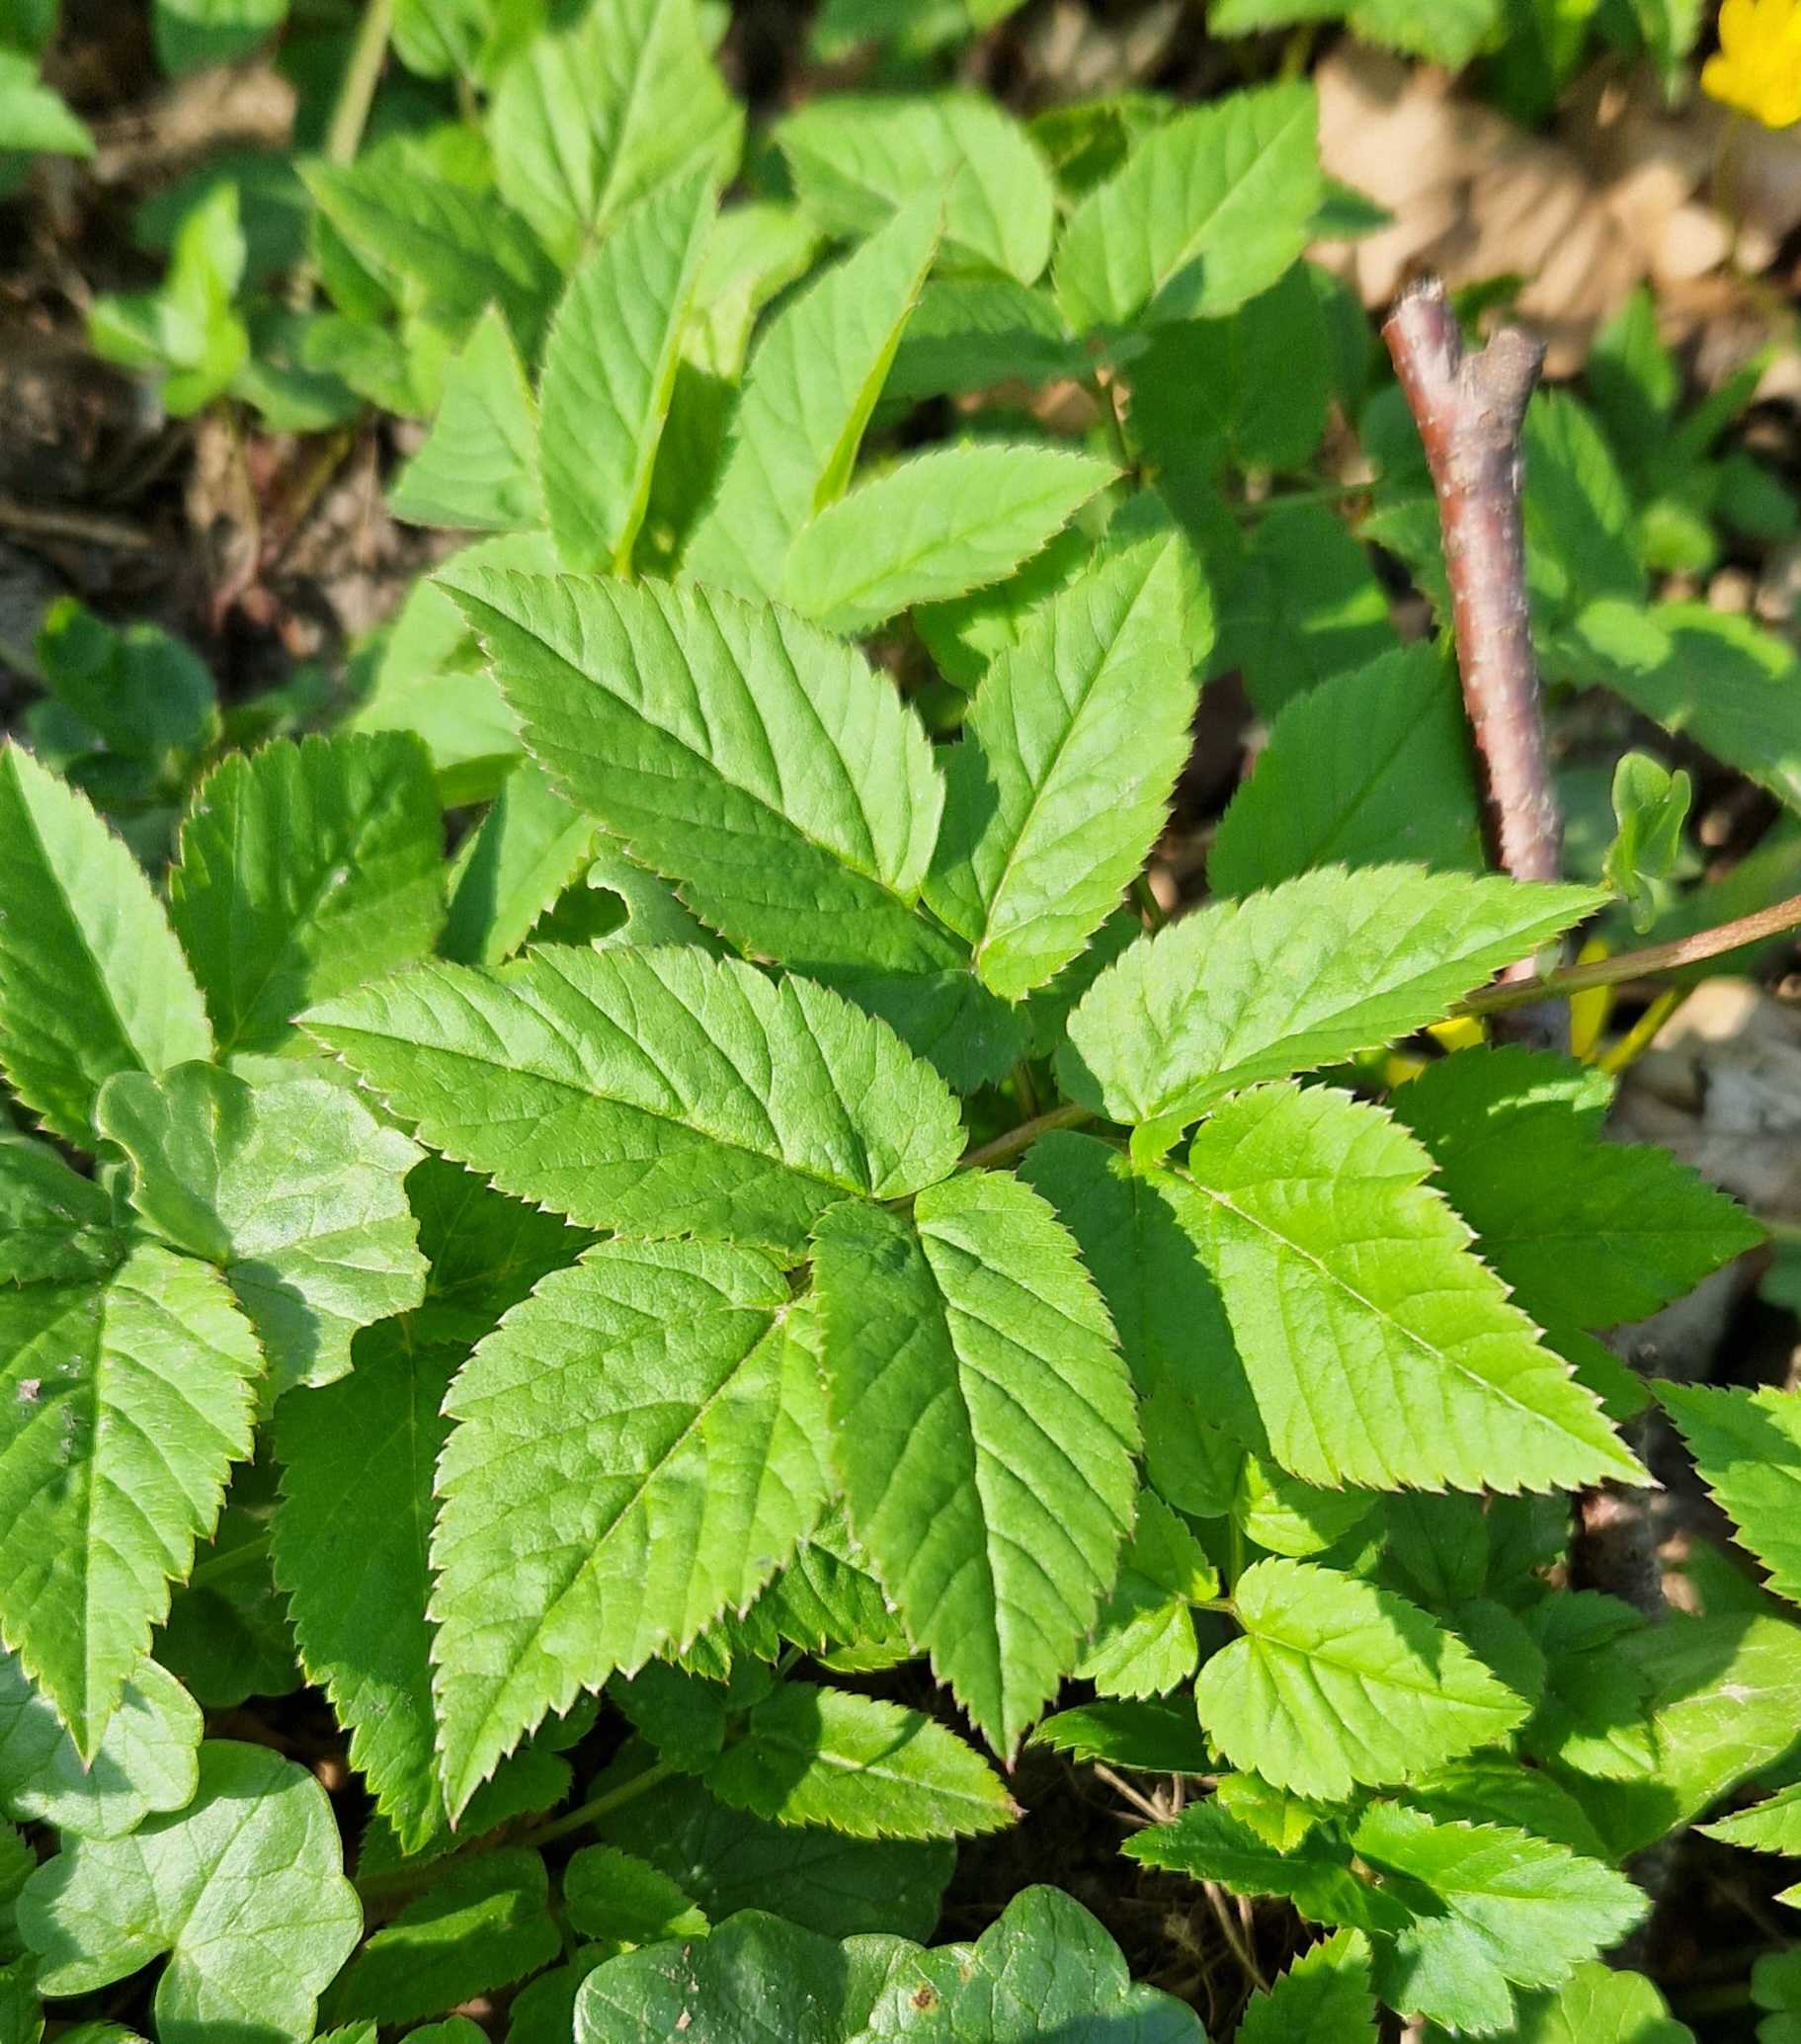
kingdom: Plantae
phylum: Tracheophyta
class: Magnoliopsida
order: Apiales
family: Apiaceae
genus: Aegopodium
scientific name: Aegopodium podagraria
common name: Skvalderkål
